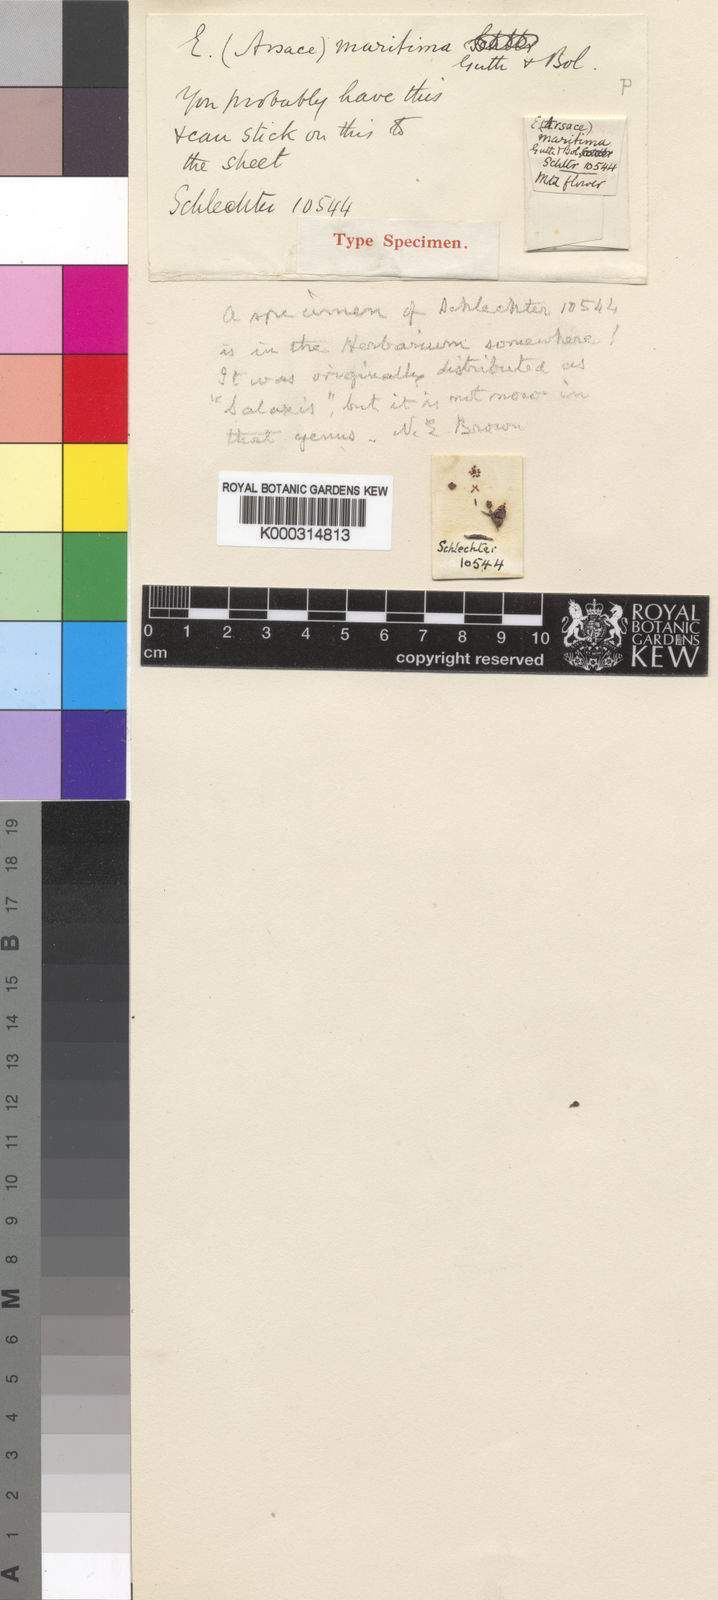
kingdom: Plantae
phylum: Tracheophyta
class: Magnoliopsida
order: Ericales
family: Ericaceae
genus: Erica
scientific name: Erica maritima
